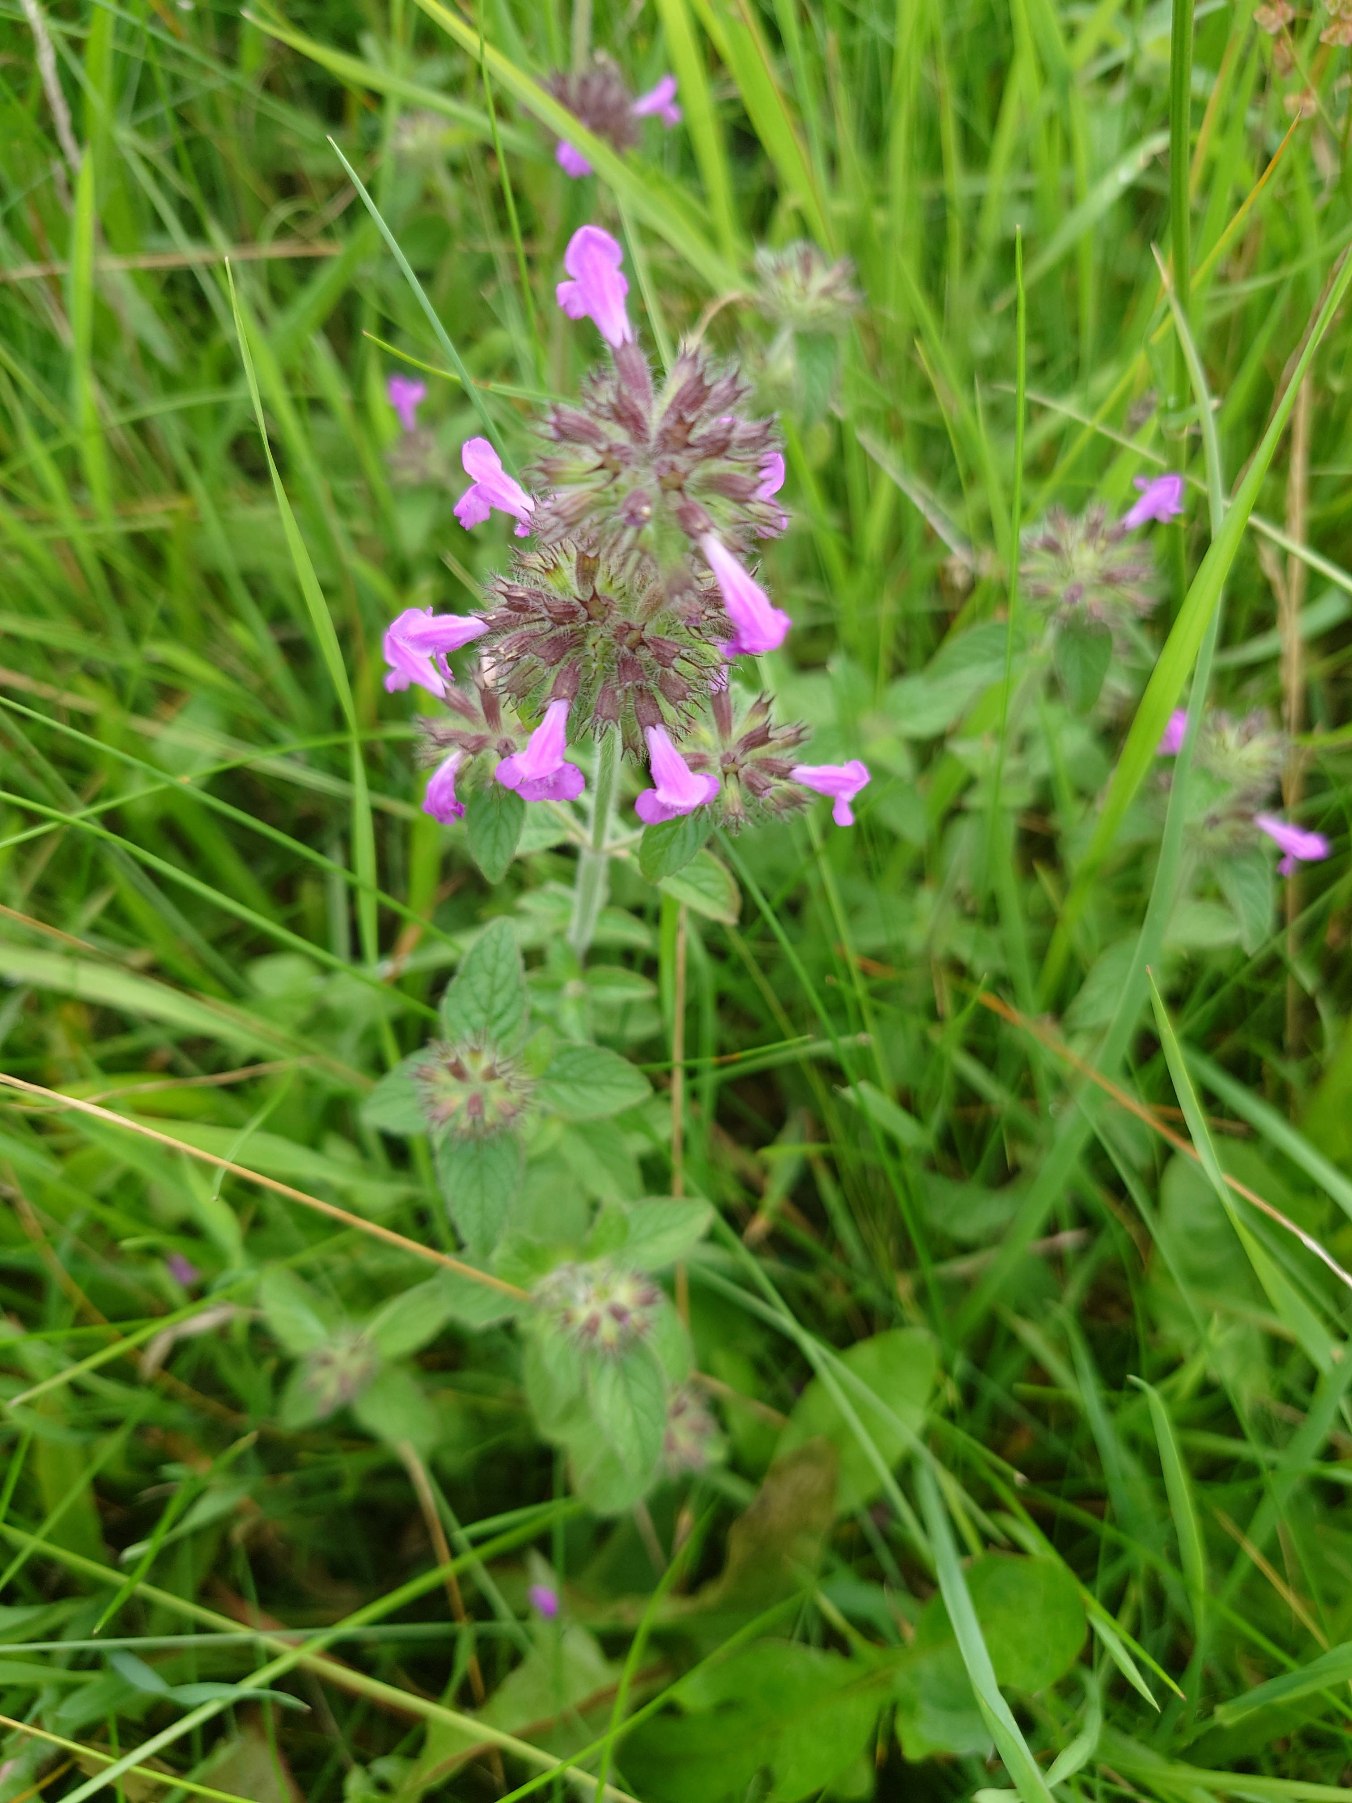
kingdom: Plantae
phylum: Tracheophyta
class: Magnoliopsida
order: Lamiales
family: Lamiaceae
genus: Clinopodium
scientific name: Clinopodium vulgare
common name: Kransbørste
